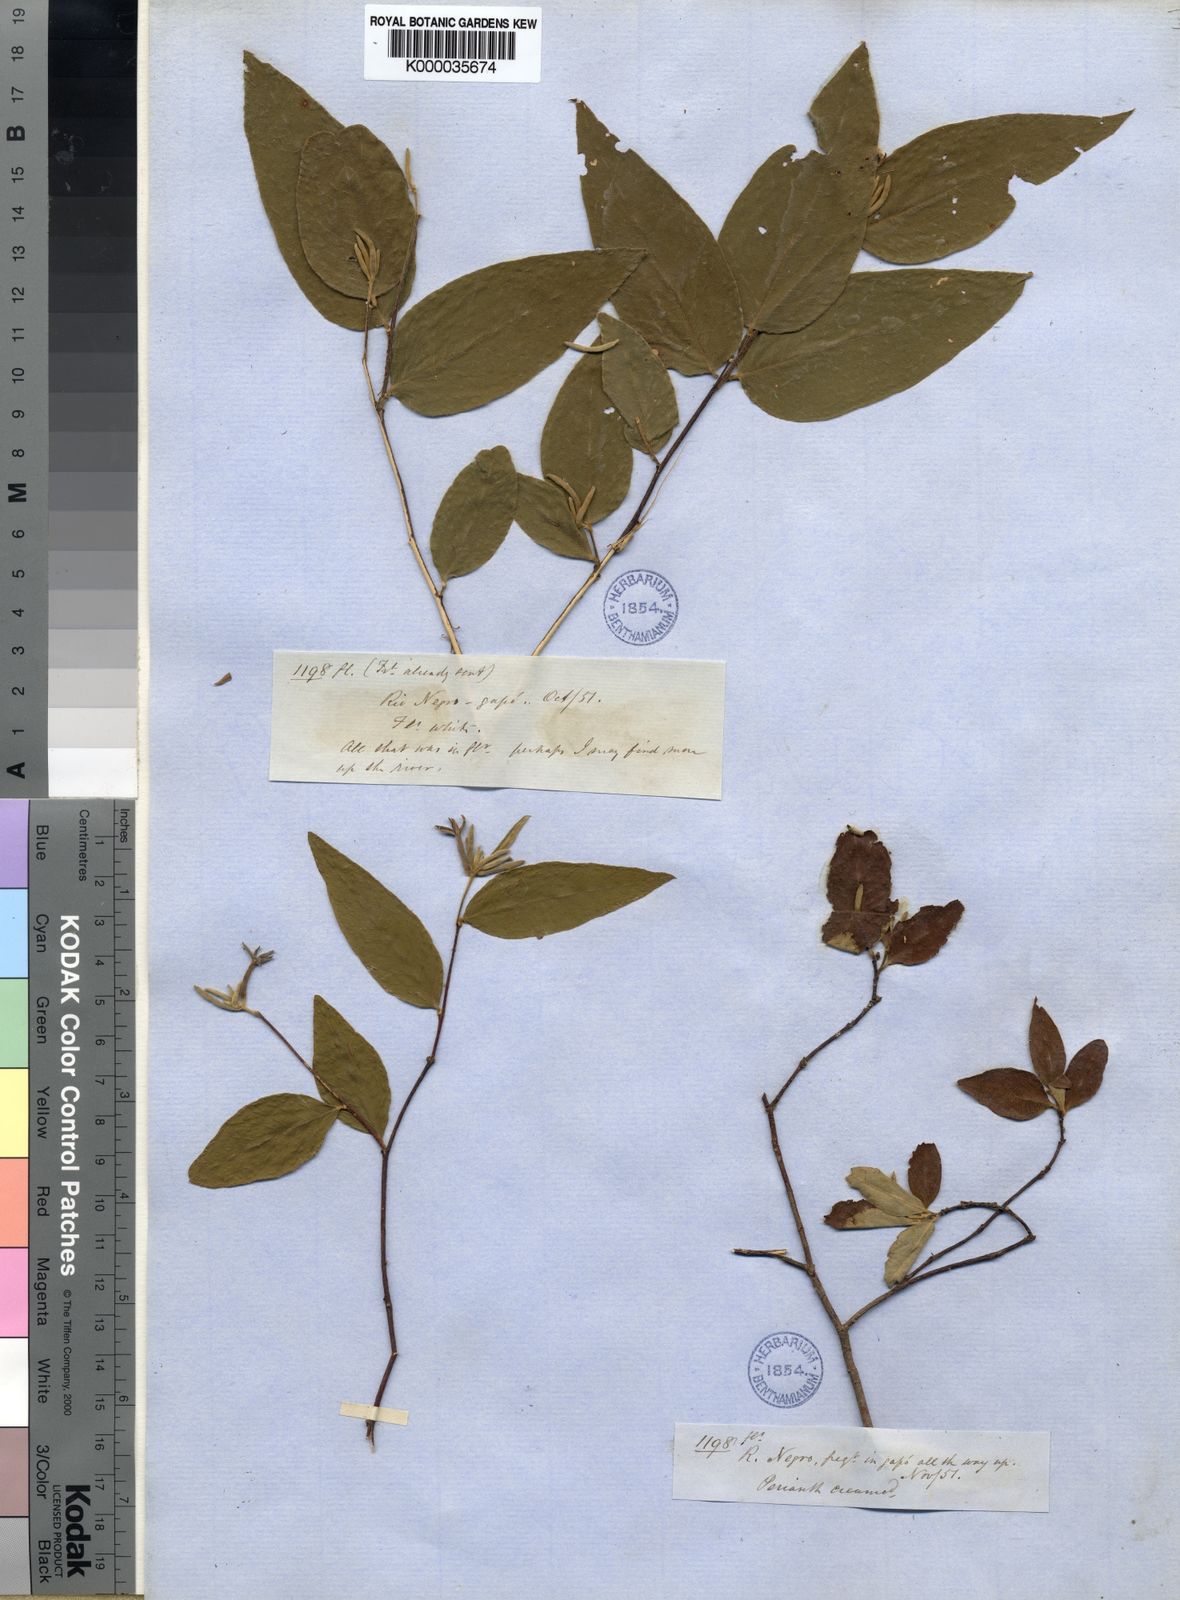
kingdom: Plantae
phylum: Tracheophyta
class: Magnoliopsida
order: Malvales
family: Thymelaeaceae
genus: Lasiadenia
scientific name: Lasiadenia rupestris
